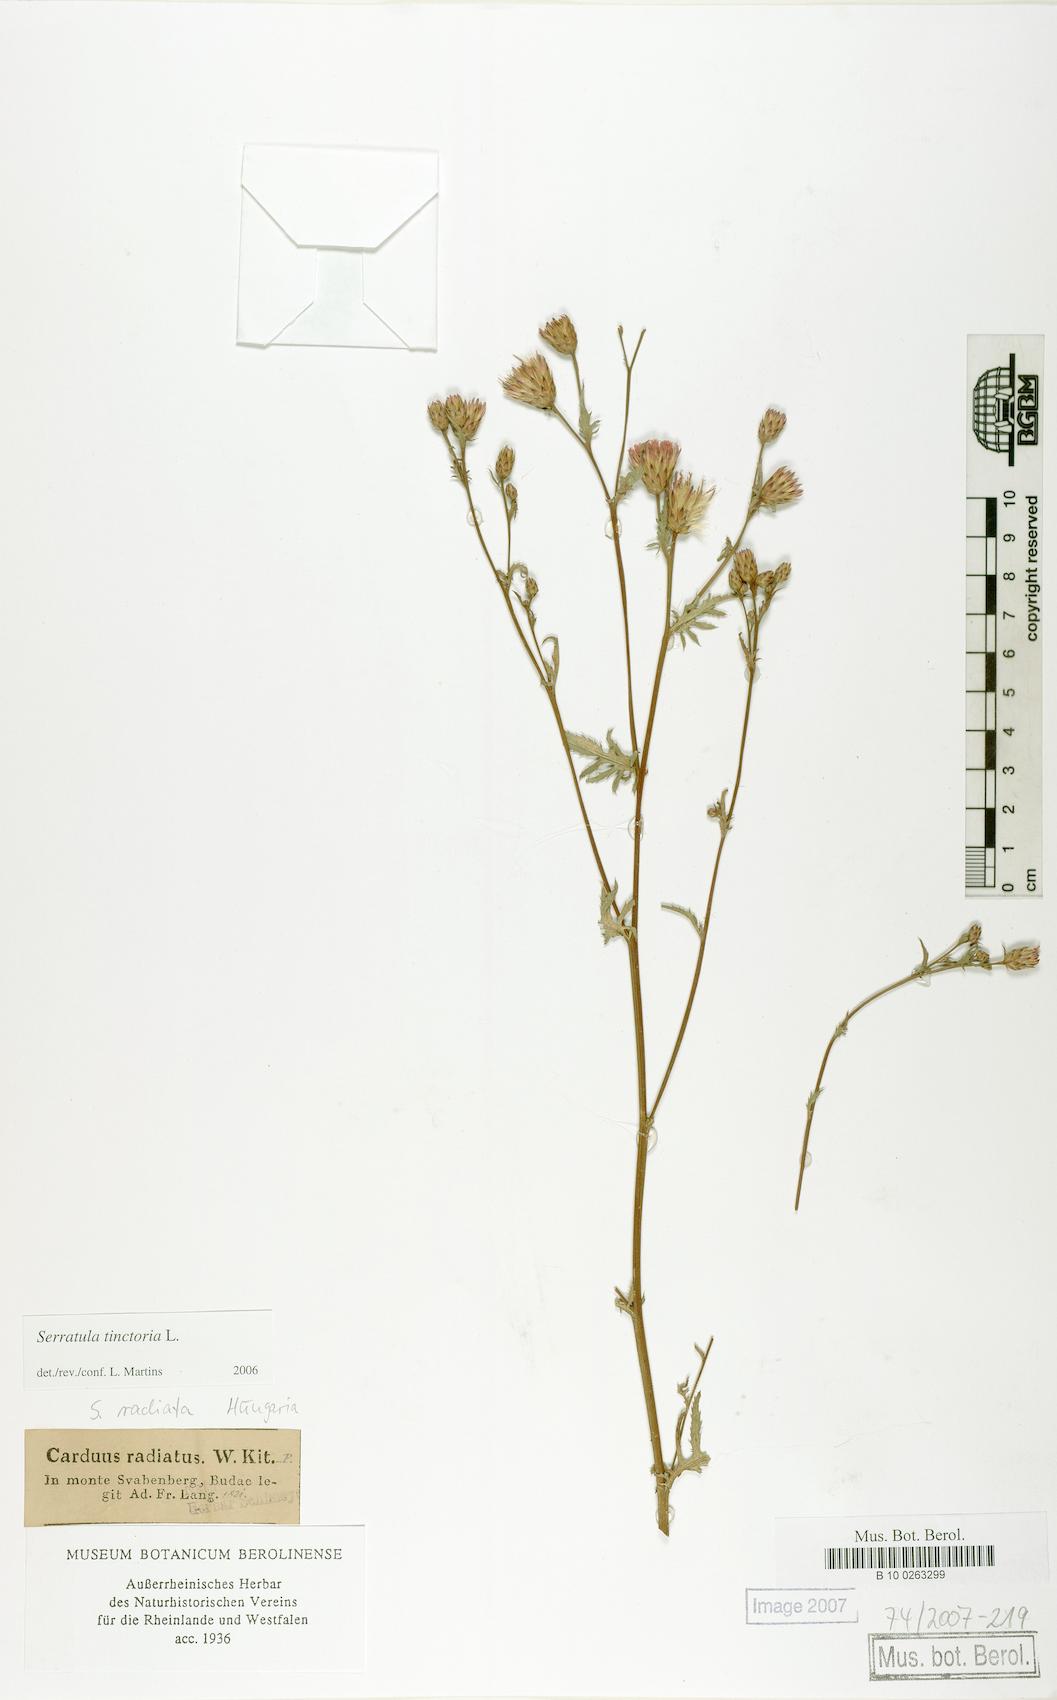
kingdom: Plantae
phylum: Tracheophyta
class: Magnoliopsida
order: Asterales
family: Asteraceae
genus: Serratula
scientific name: Serratula tinctoria
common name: Saw-wort
